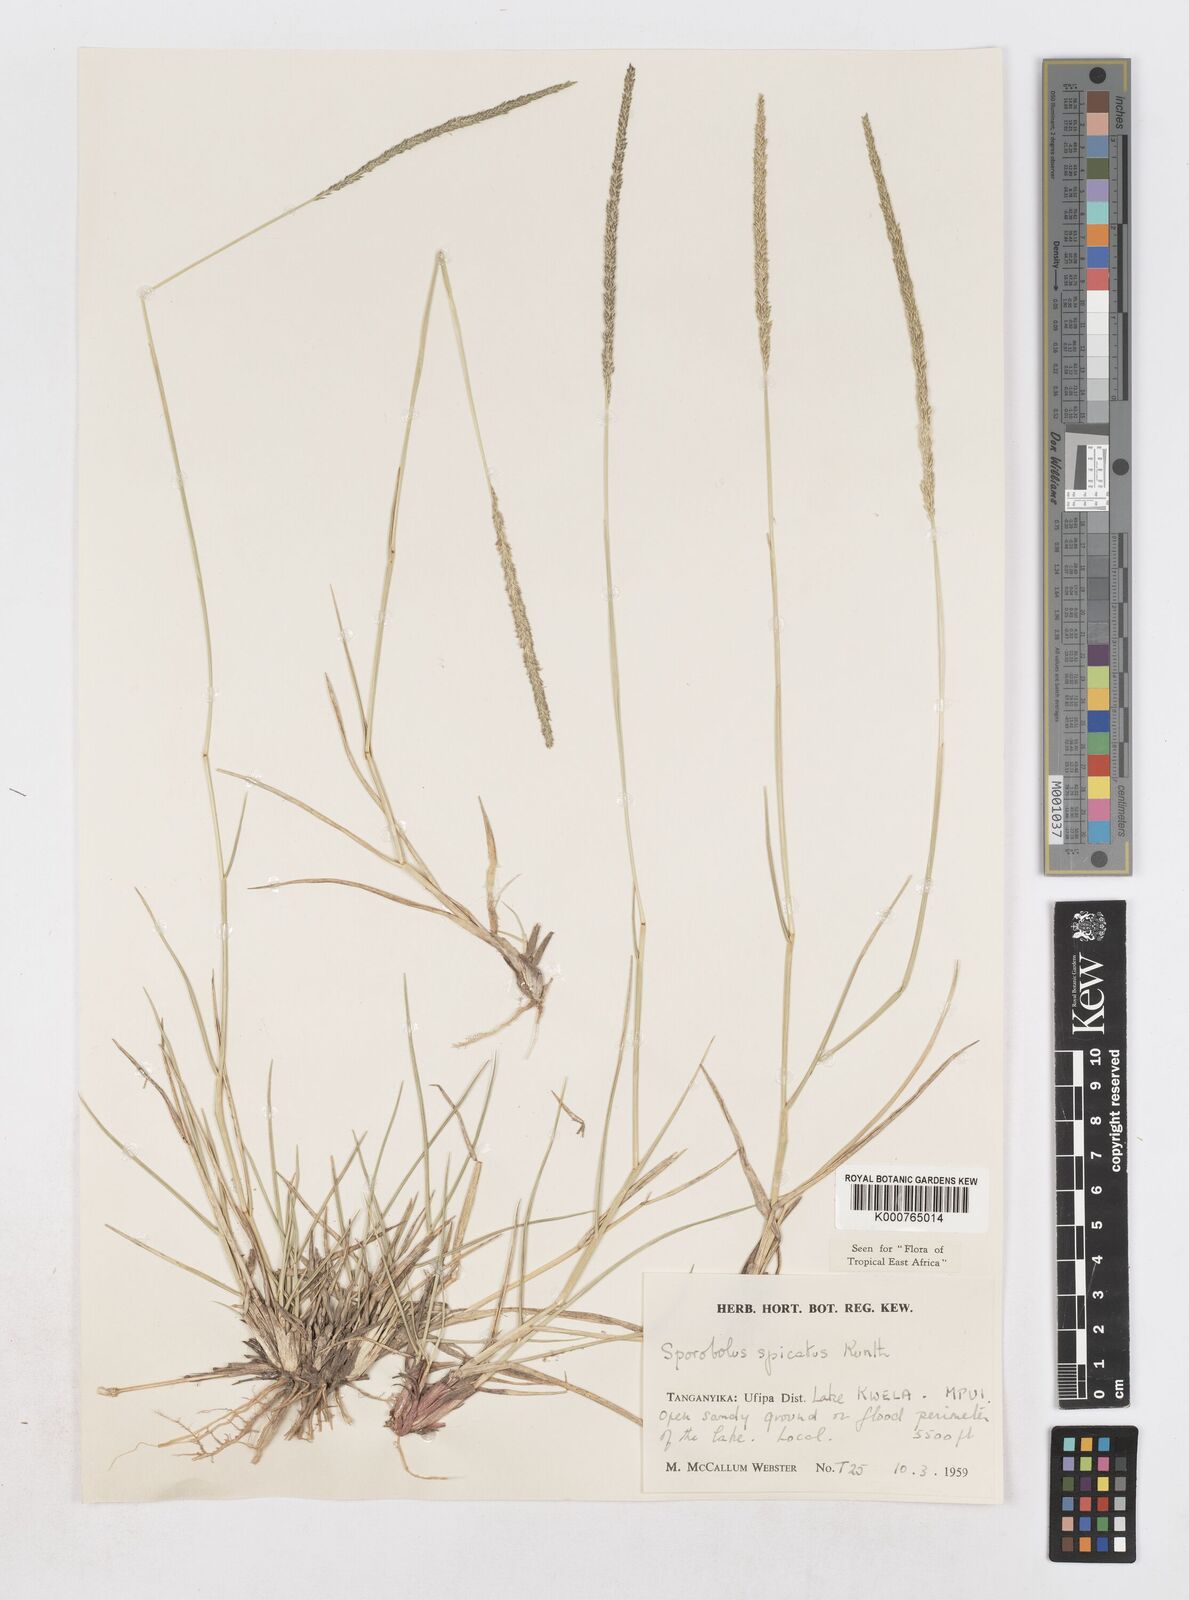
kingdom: Plantae
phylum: Tracheophyta
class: Liliopsida
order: Poales
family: Poaceae
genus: Sporobolus
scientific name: Sporobolus spicatus
